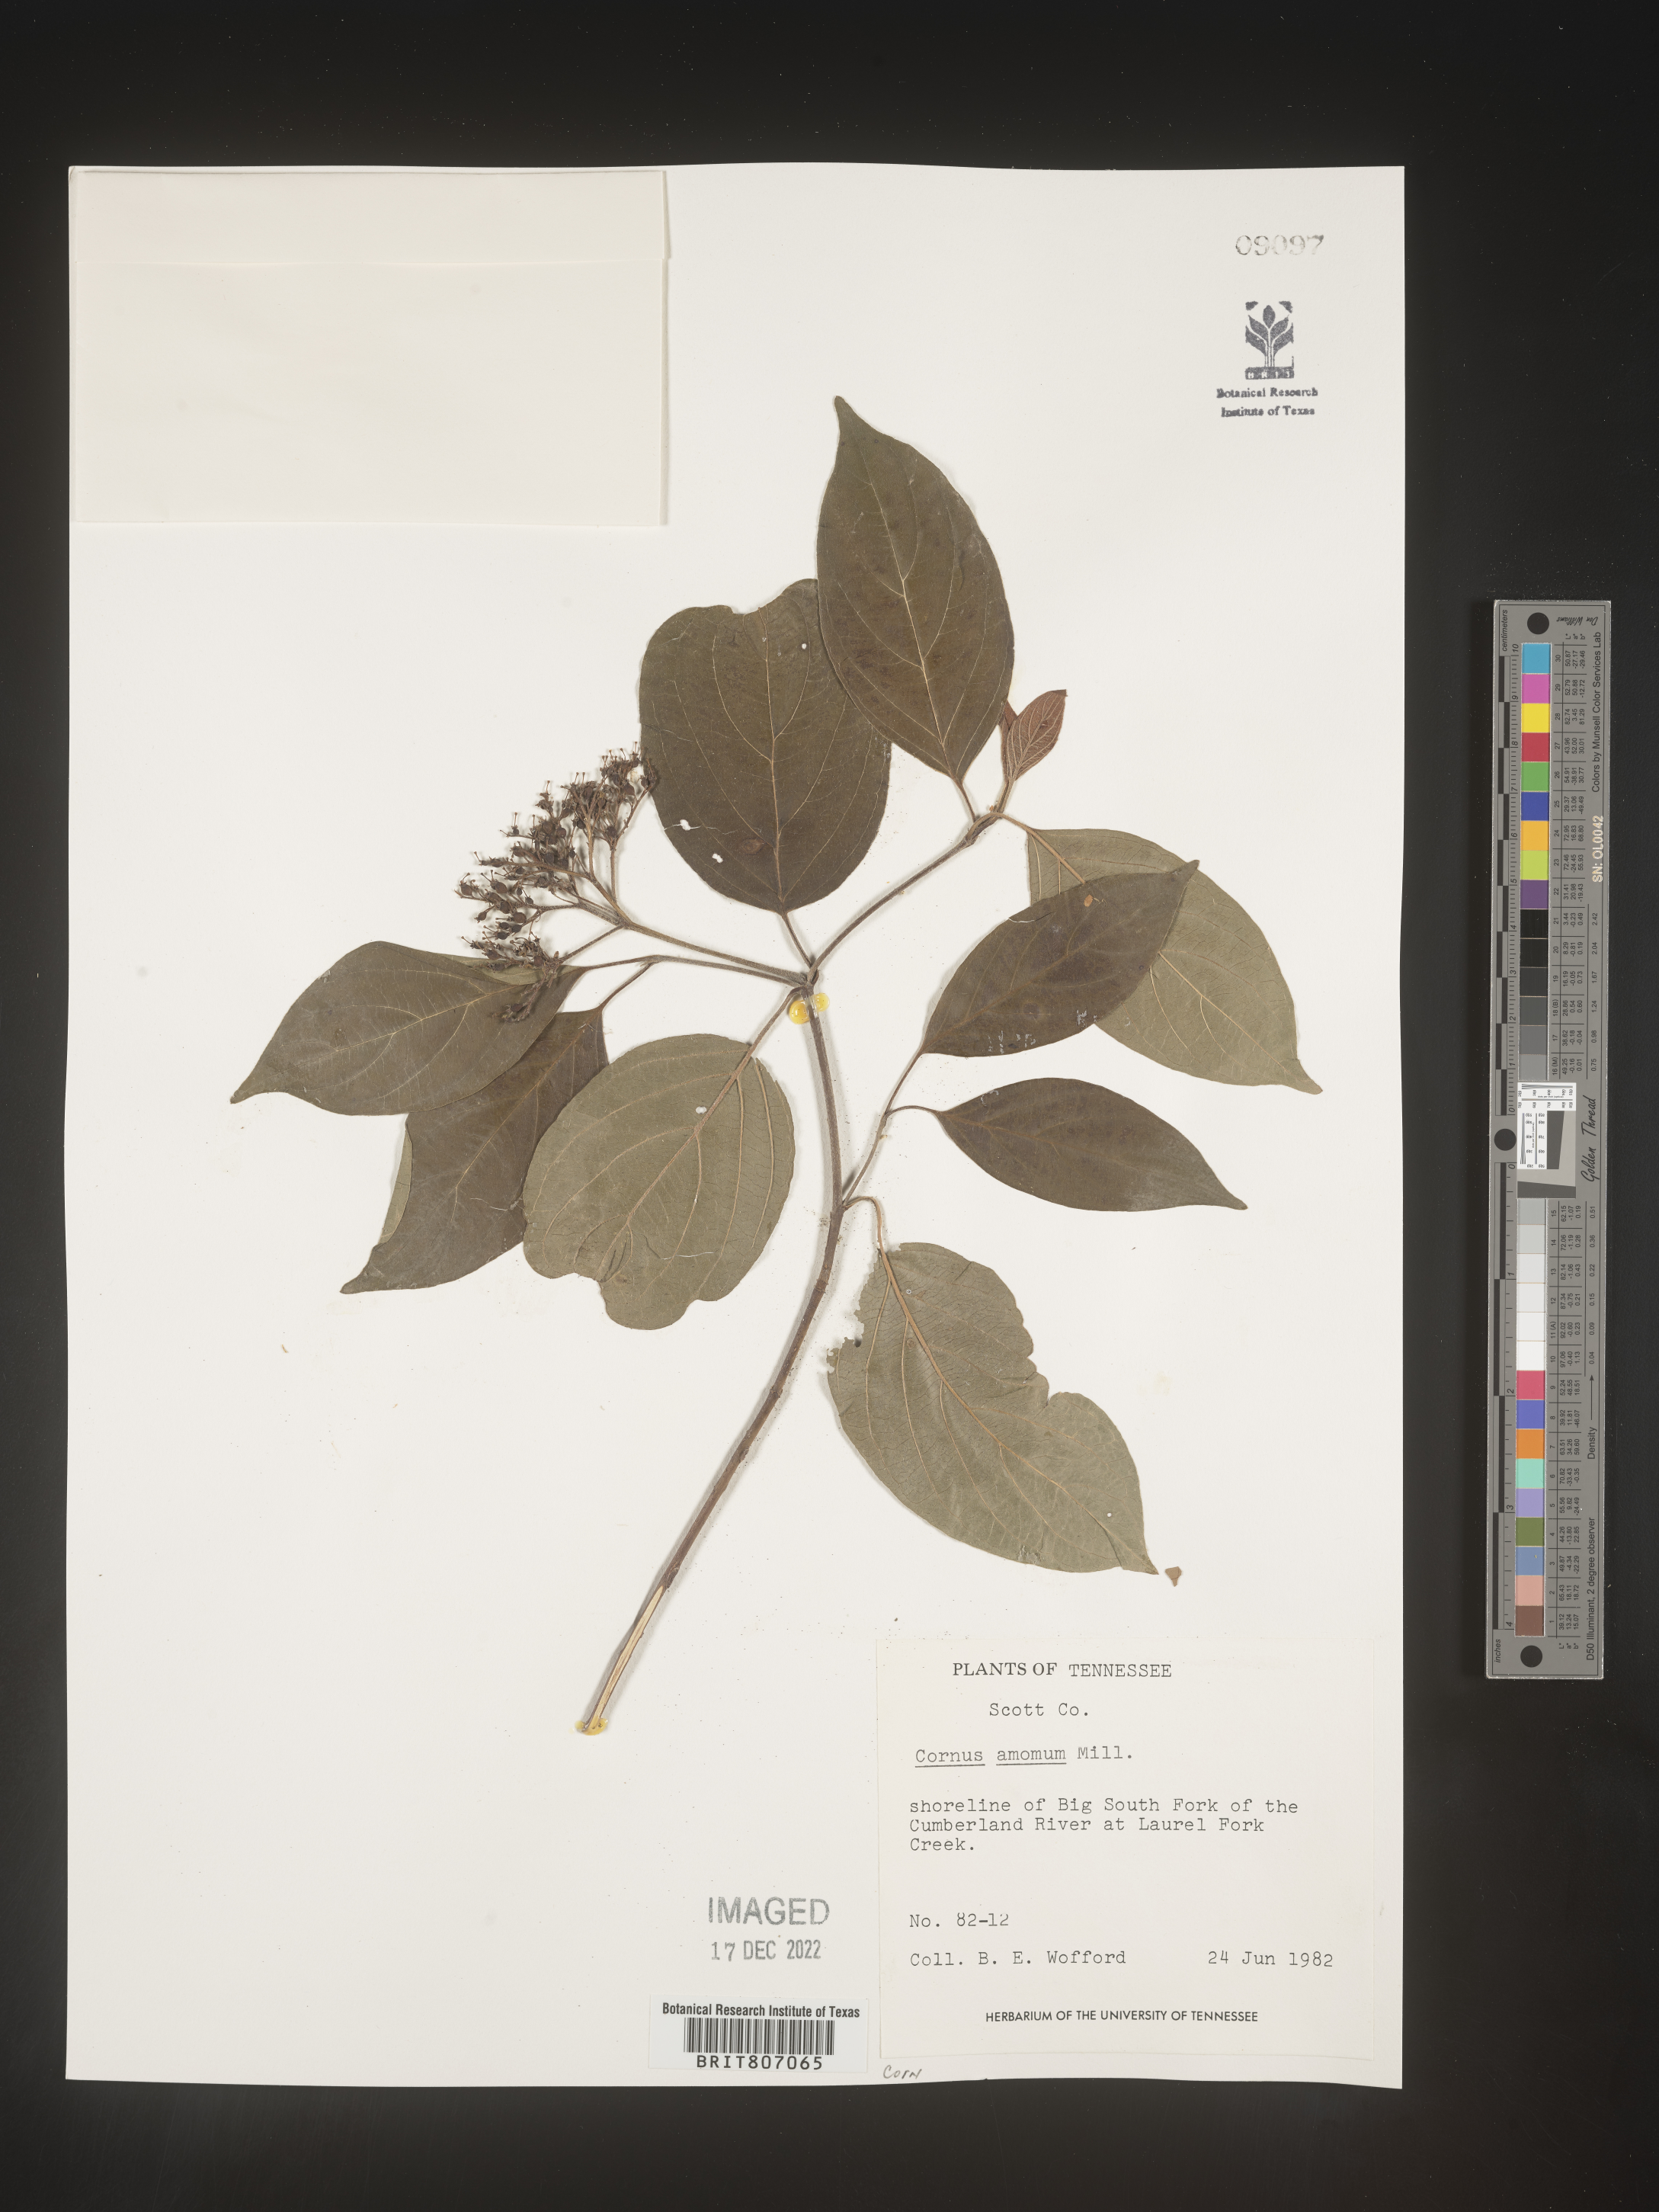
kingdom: Plantae
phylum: Tracheophyta
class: Magnoliopsida
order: Cornales
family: Cornaceae
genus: Cornus
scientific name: Cornus amomum
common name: Silky dogwood
